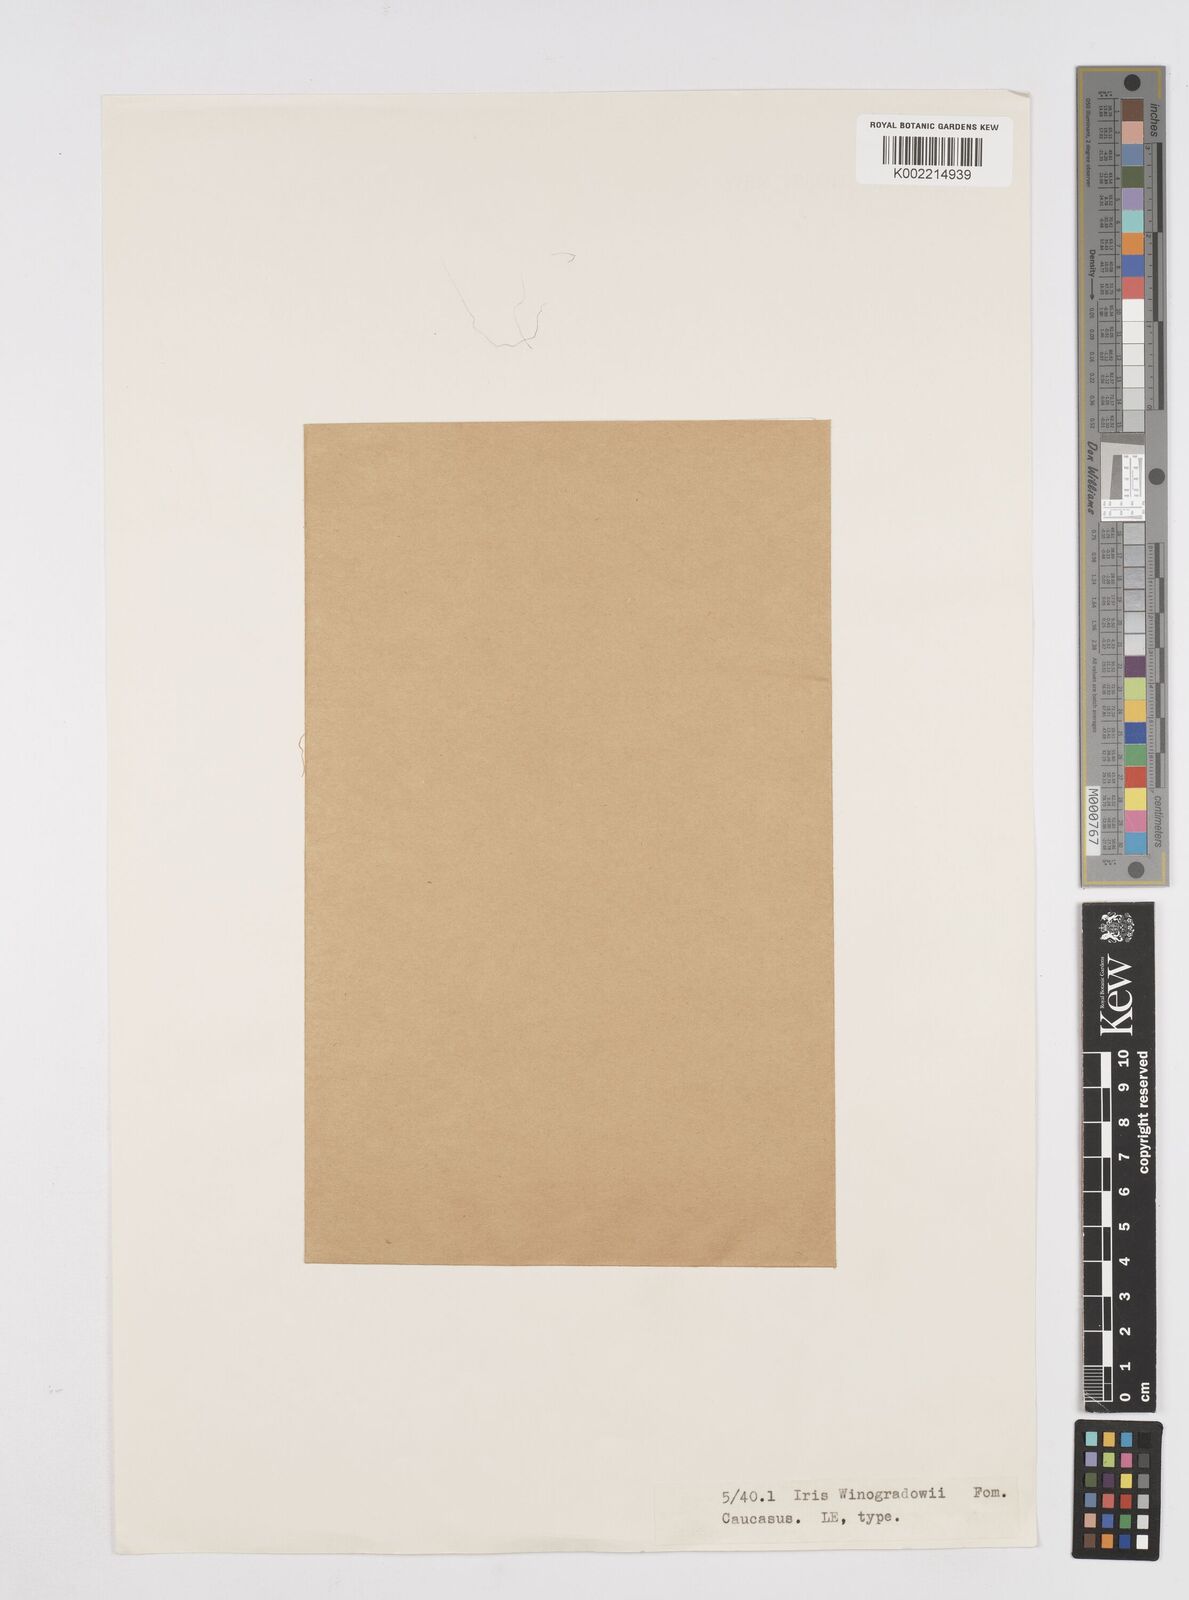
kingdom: Plantae
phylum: Tracheophyta
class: Liliopsida
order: Asparagales
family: Iridaceae
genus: Iris
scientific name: Iris winogradowii
